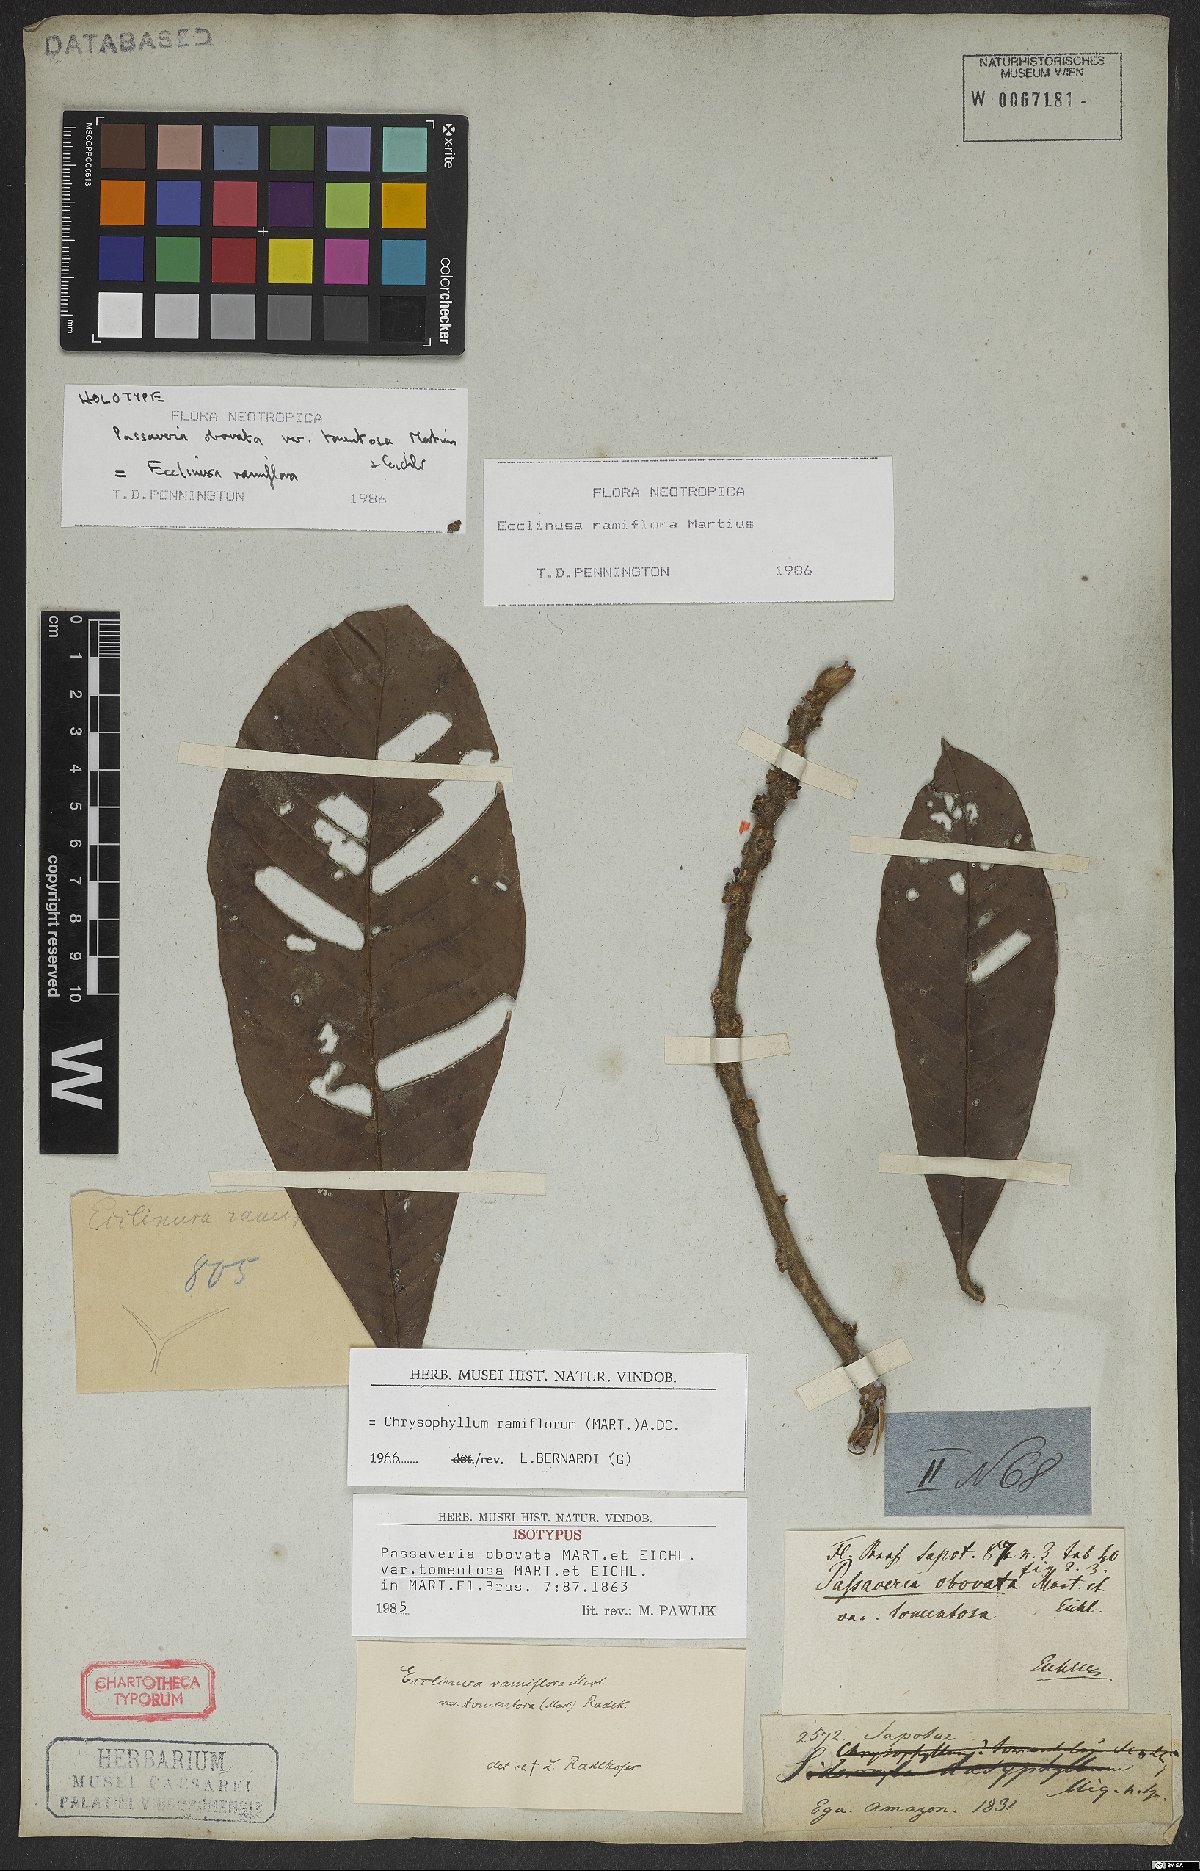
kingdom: Plantae
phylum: Tracheophyta
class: Magnoliopsida
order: Ericales
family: Sapotaceae
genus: Ecclinusa
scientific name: Ecclinusa ramiflora
